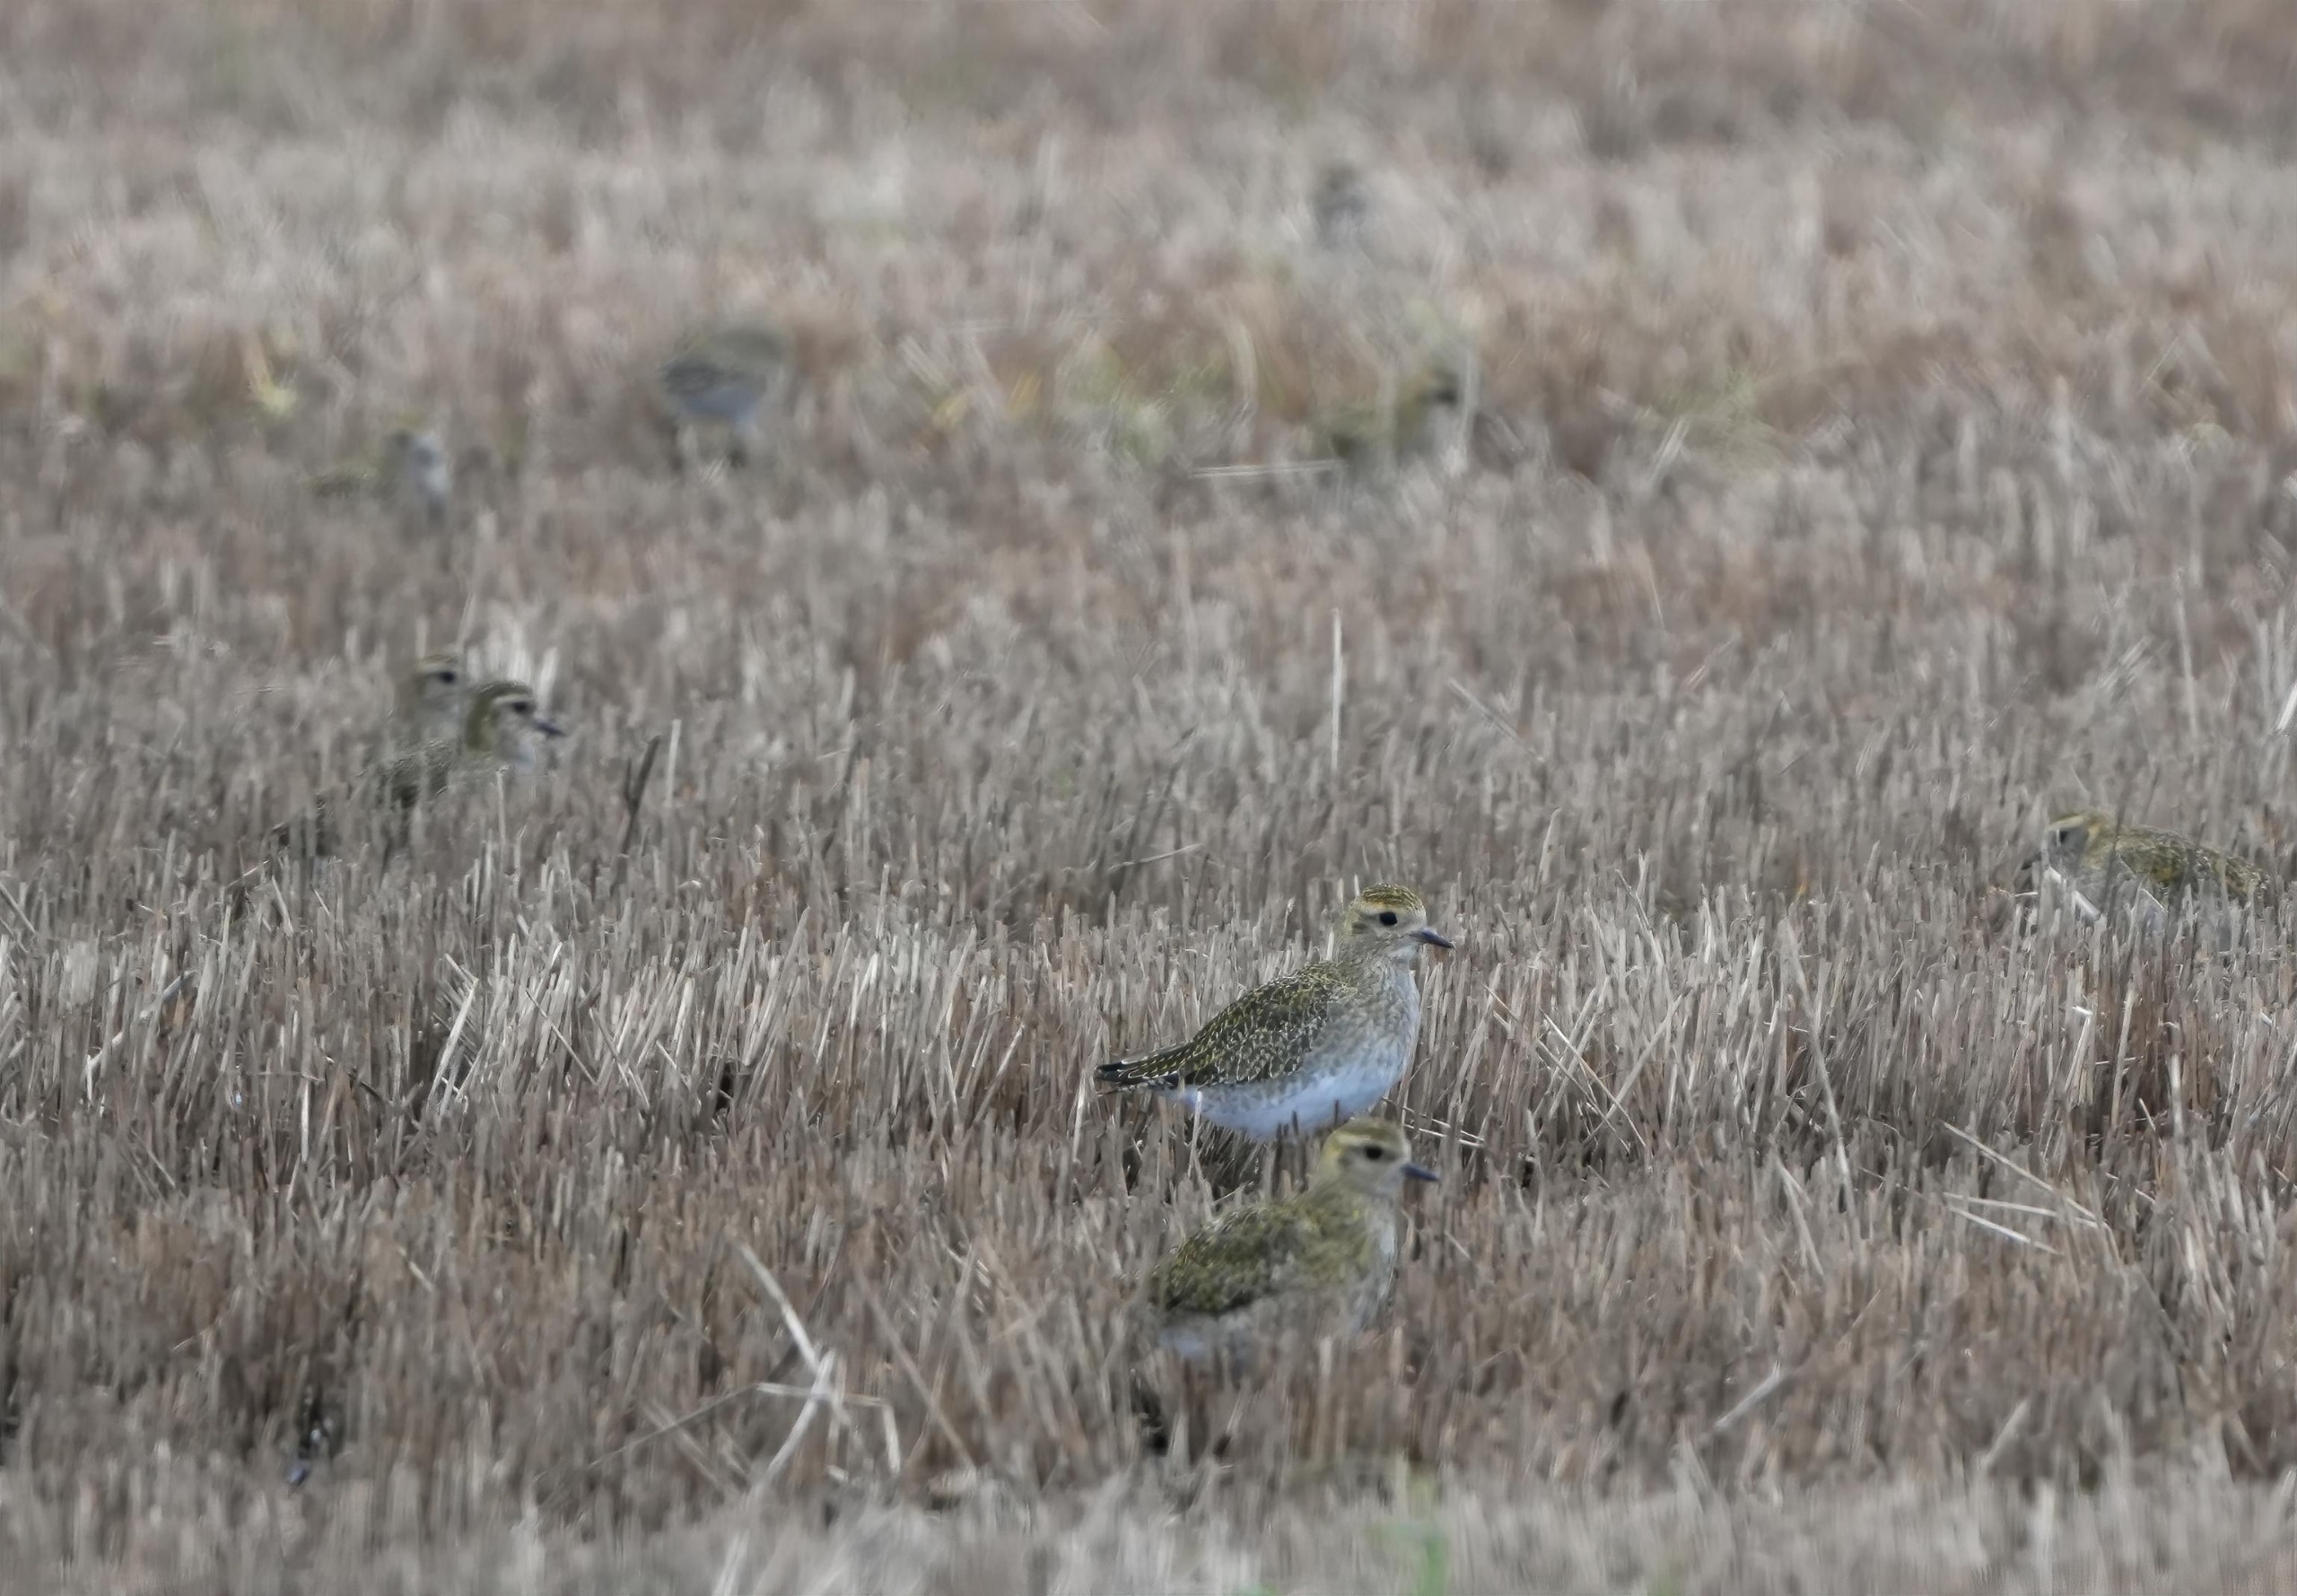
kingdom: Animalia
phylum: Chordata
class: Aves
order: Charadriiformes
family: Charadriidae
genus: Pluvialis
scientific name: Pluvialis apricaria
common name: Hjejle
